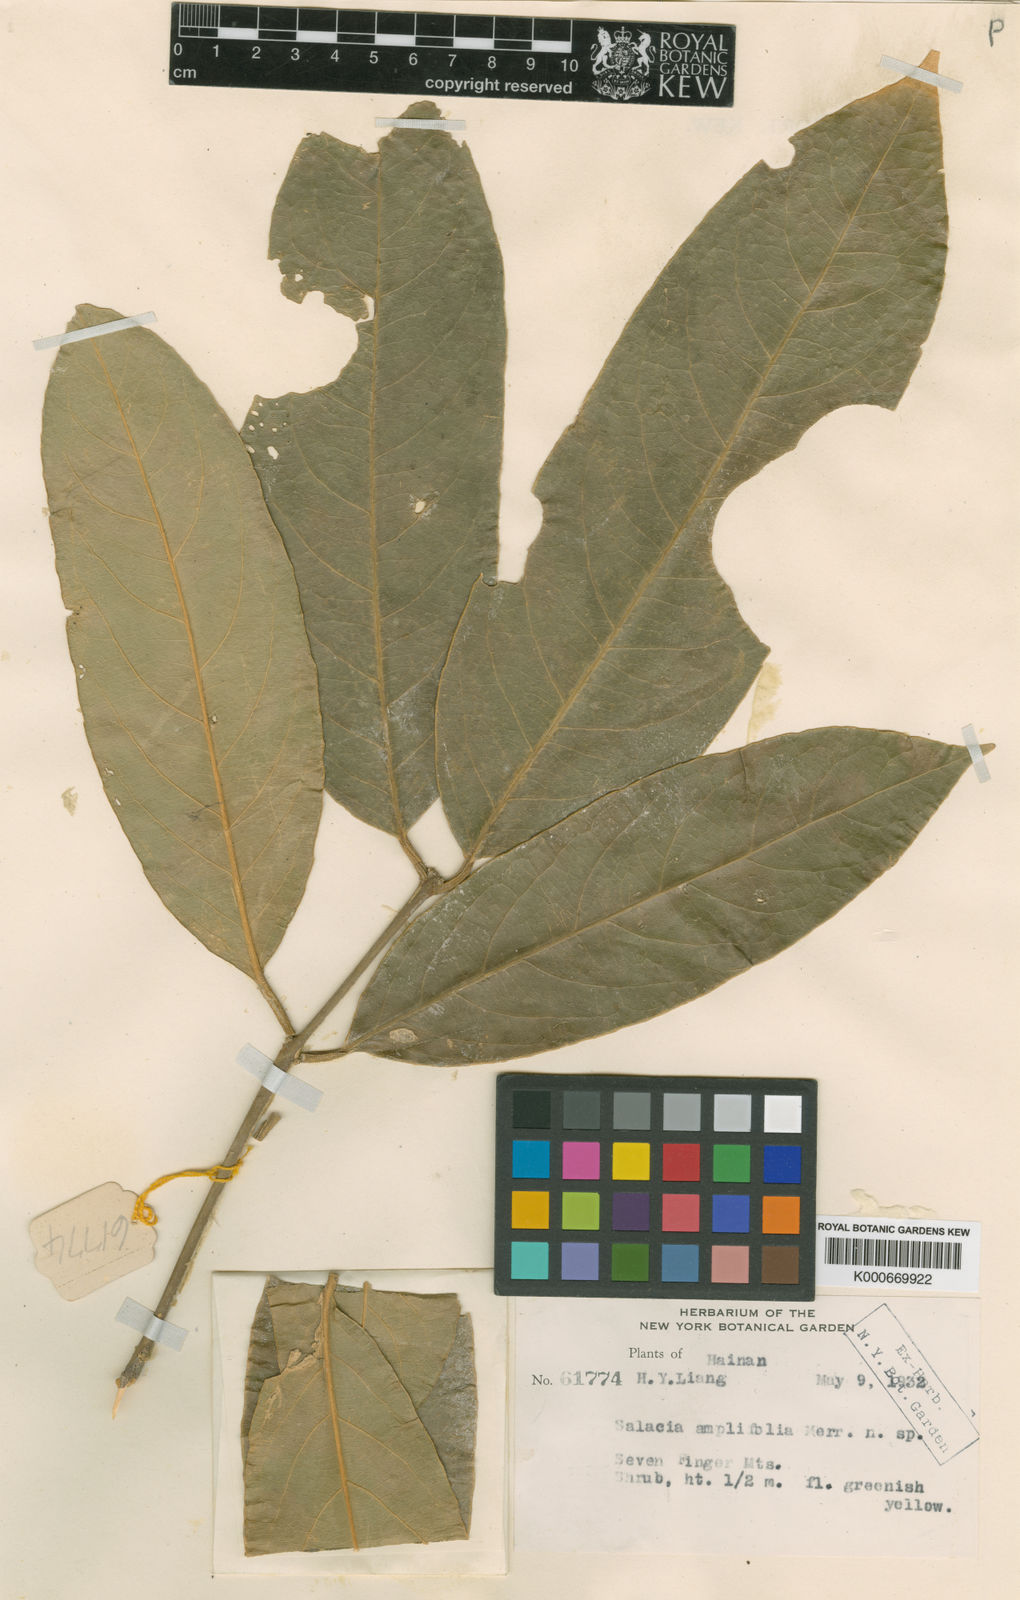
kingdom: Plantae
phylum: Tracheophyta
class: Magnoliopsida
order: Celastrales
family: Celastraceae
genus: Salacia
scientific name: Salacia macrophylla
